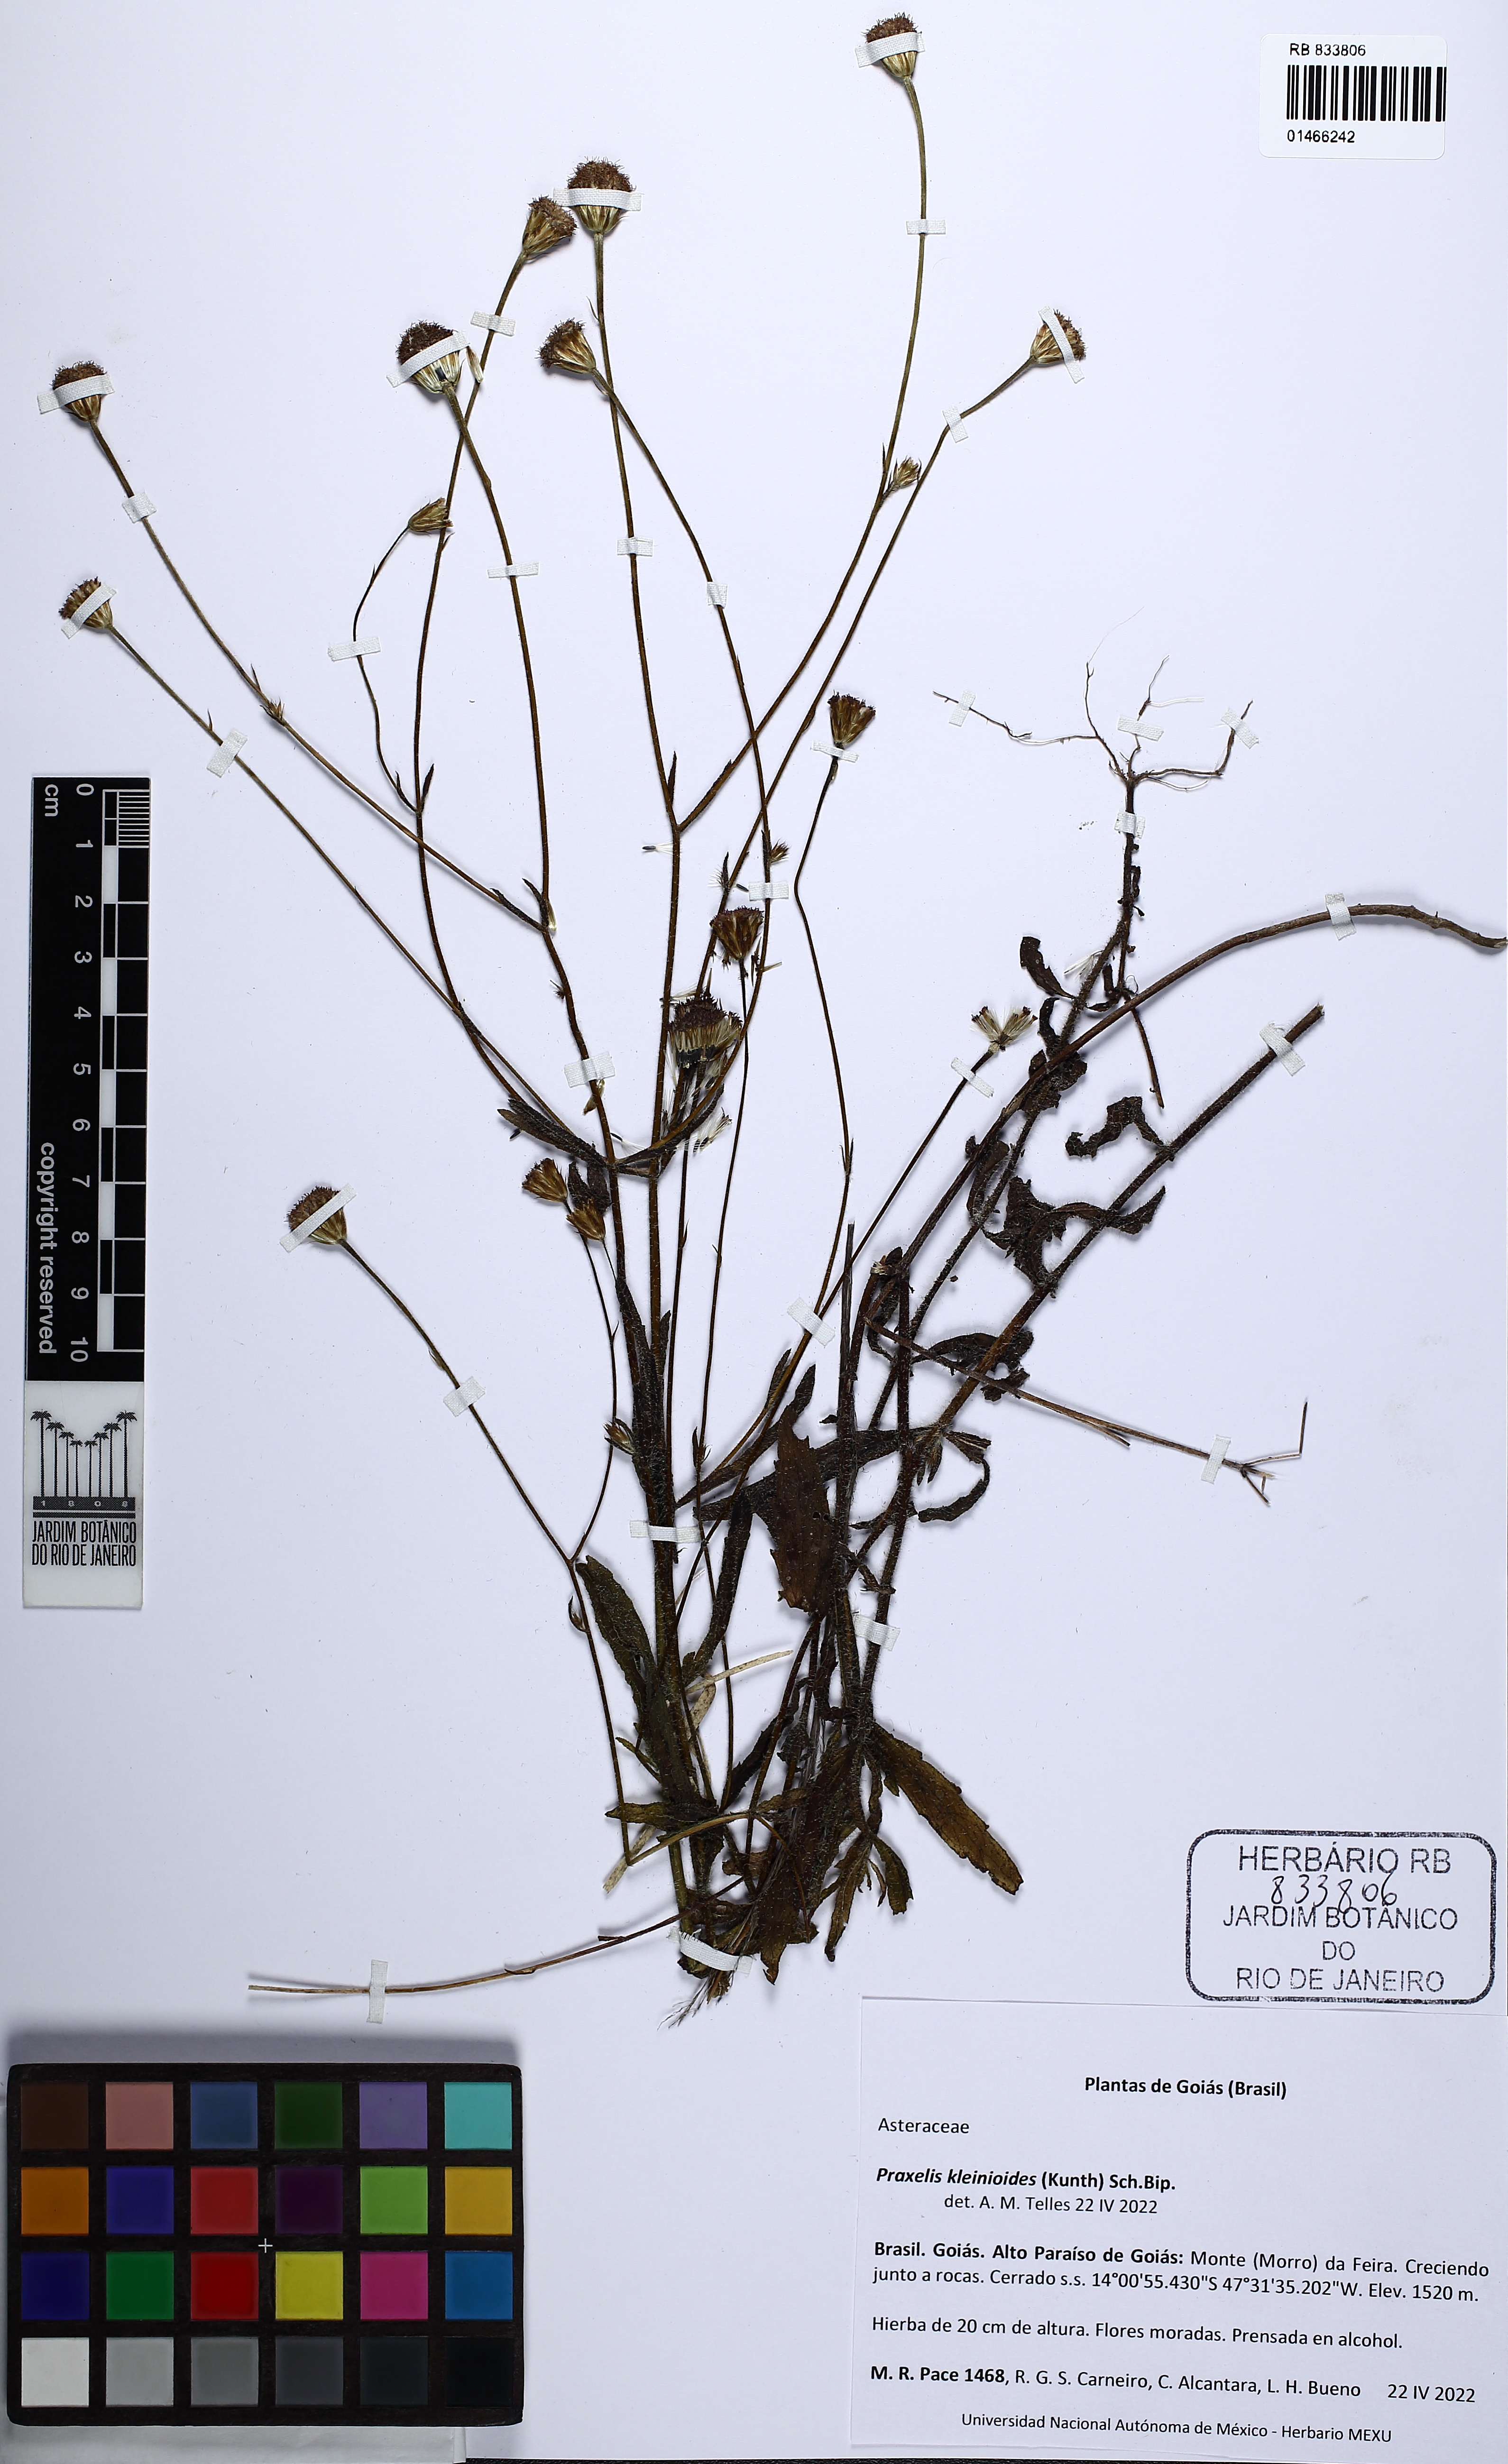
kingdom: Plantae
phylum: Tracheophyta
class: Magnoliopsida
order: Asterales
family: Asteraceae
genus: Praxelis
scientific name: Praxelis kleinioides
